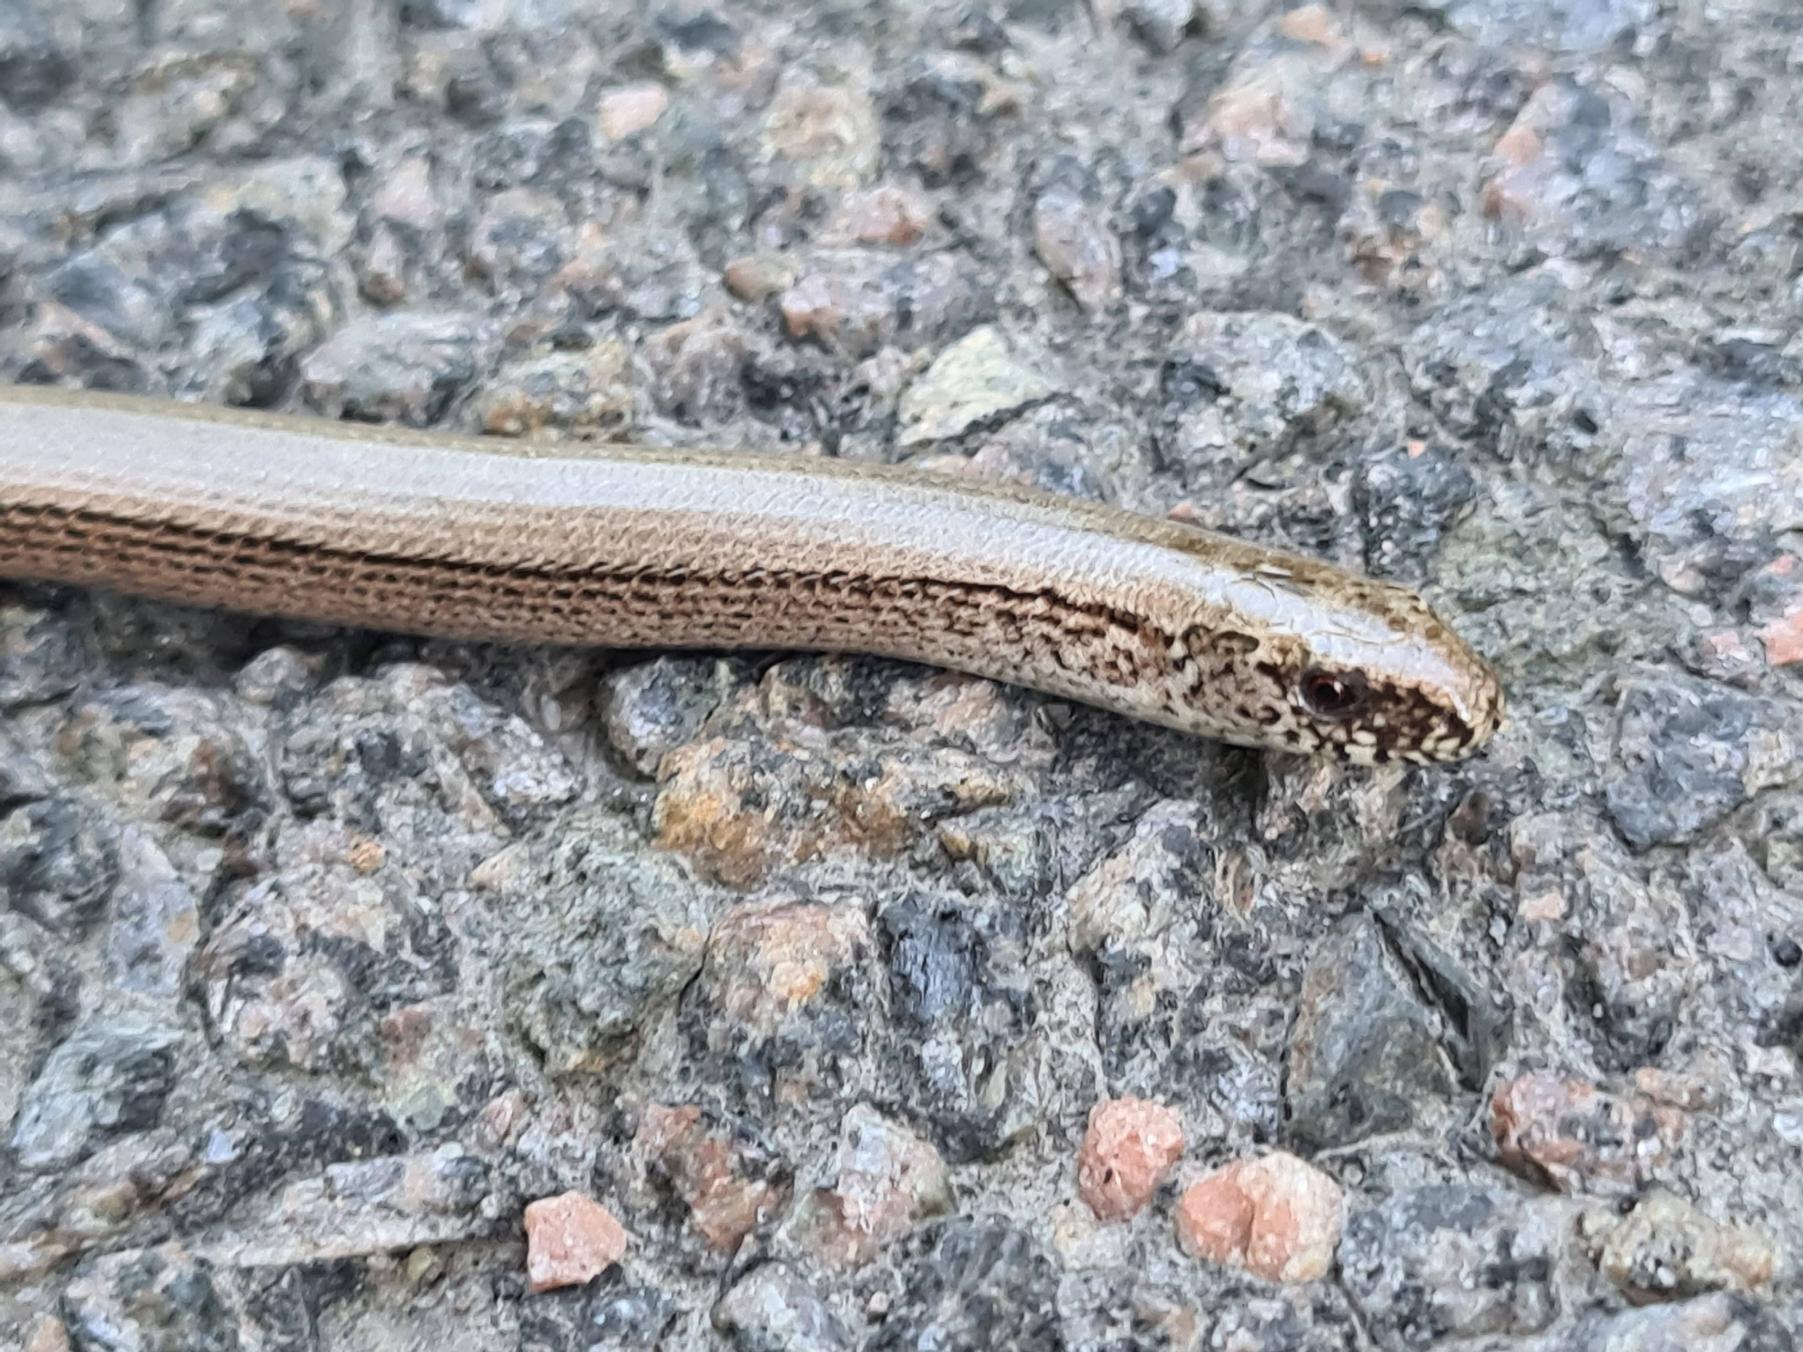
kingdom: Animalia
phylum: Chordata
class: Squamata
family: Anguidae
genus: Anguis
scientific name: Anguis fragilis
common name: Stålorm
